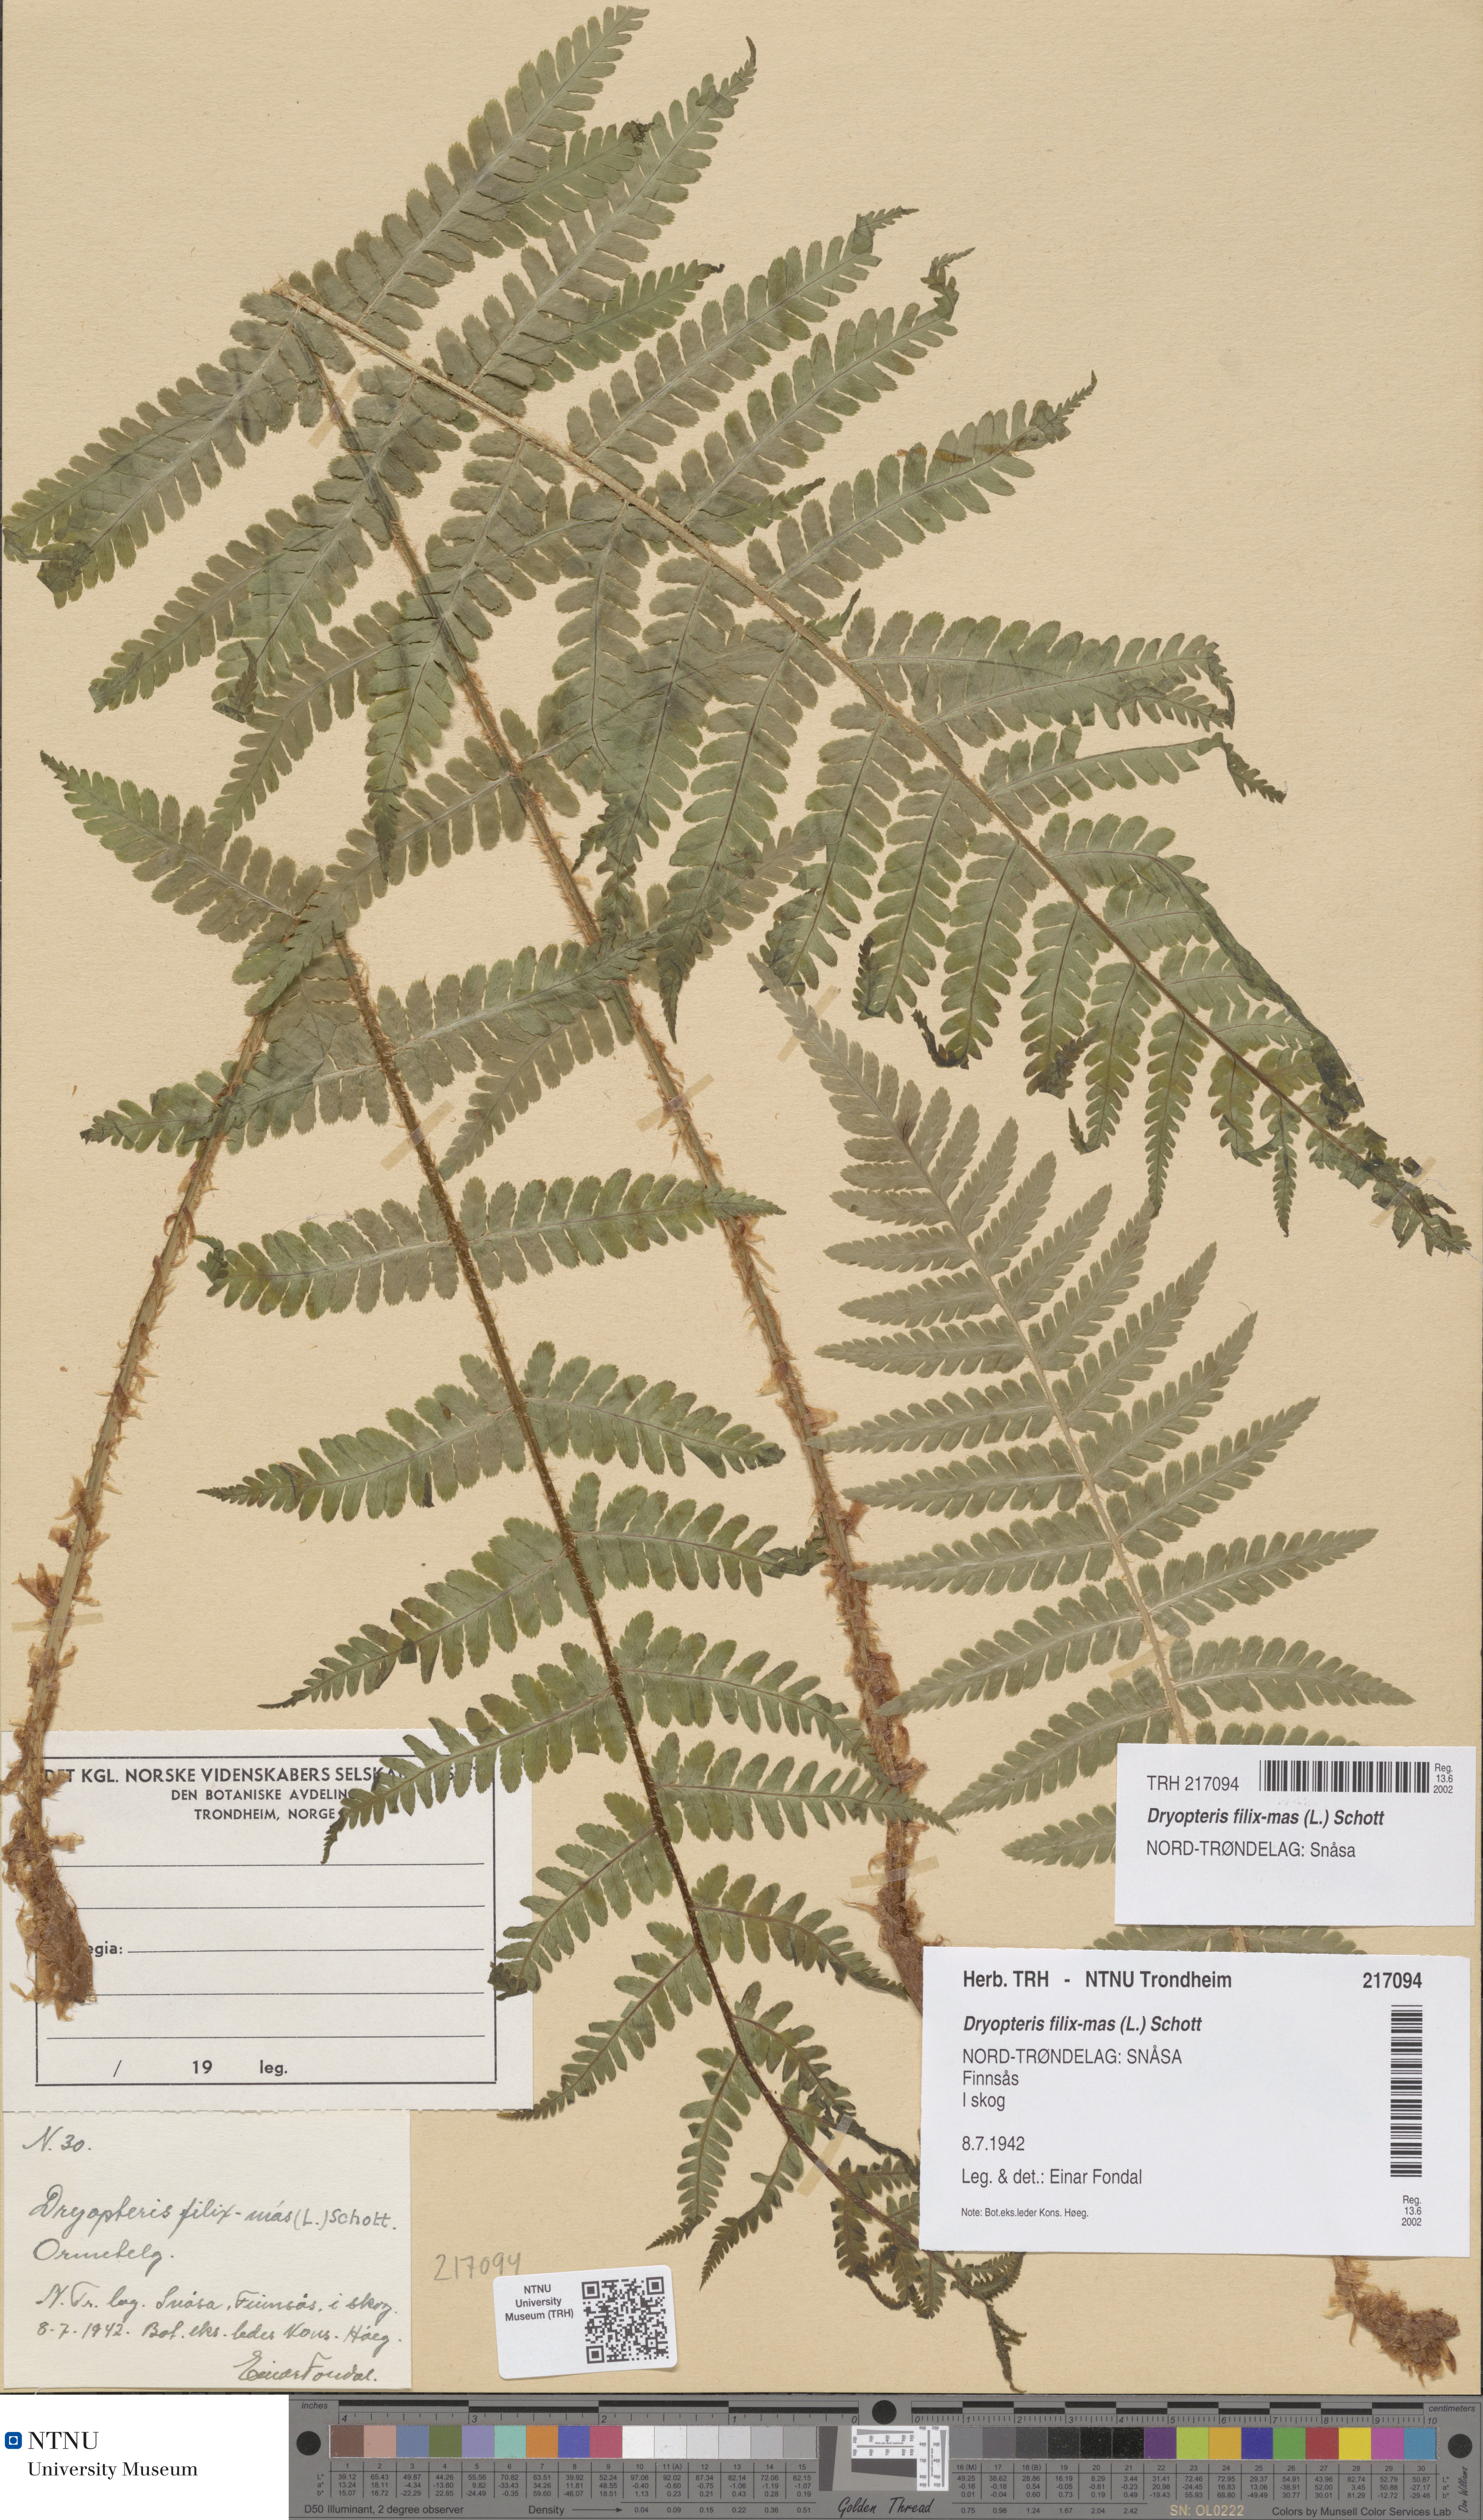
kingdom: Plantae
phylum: Tracheophyta
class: Polypodiopsida
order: Polypodiales
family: Dryopteridaceae
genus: Dryopteris
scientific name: Dryopteris filix-mas
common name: Male fern
